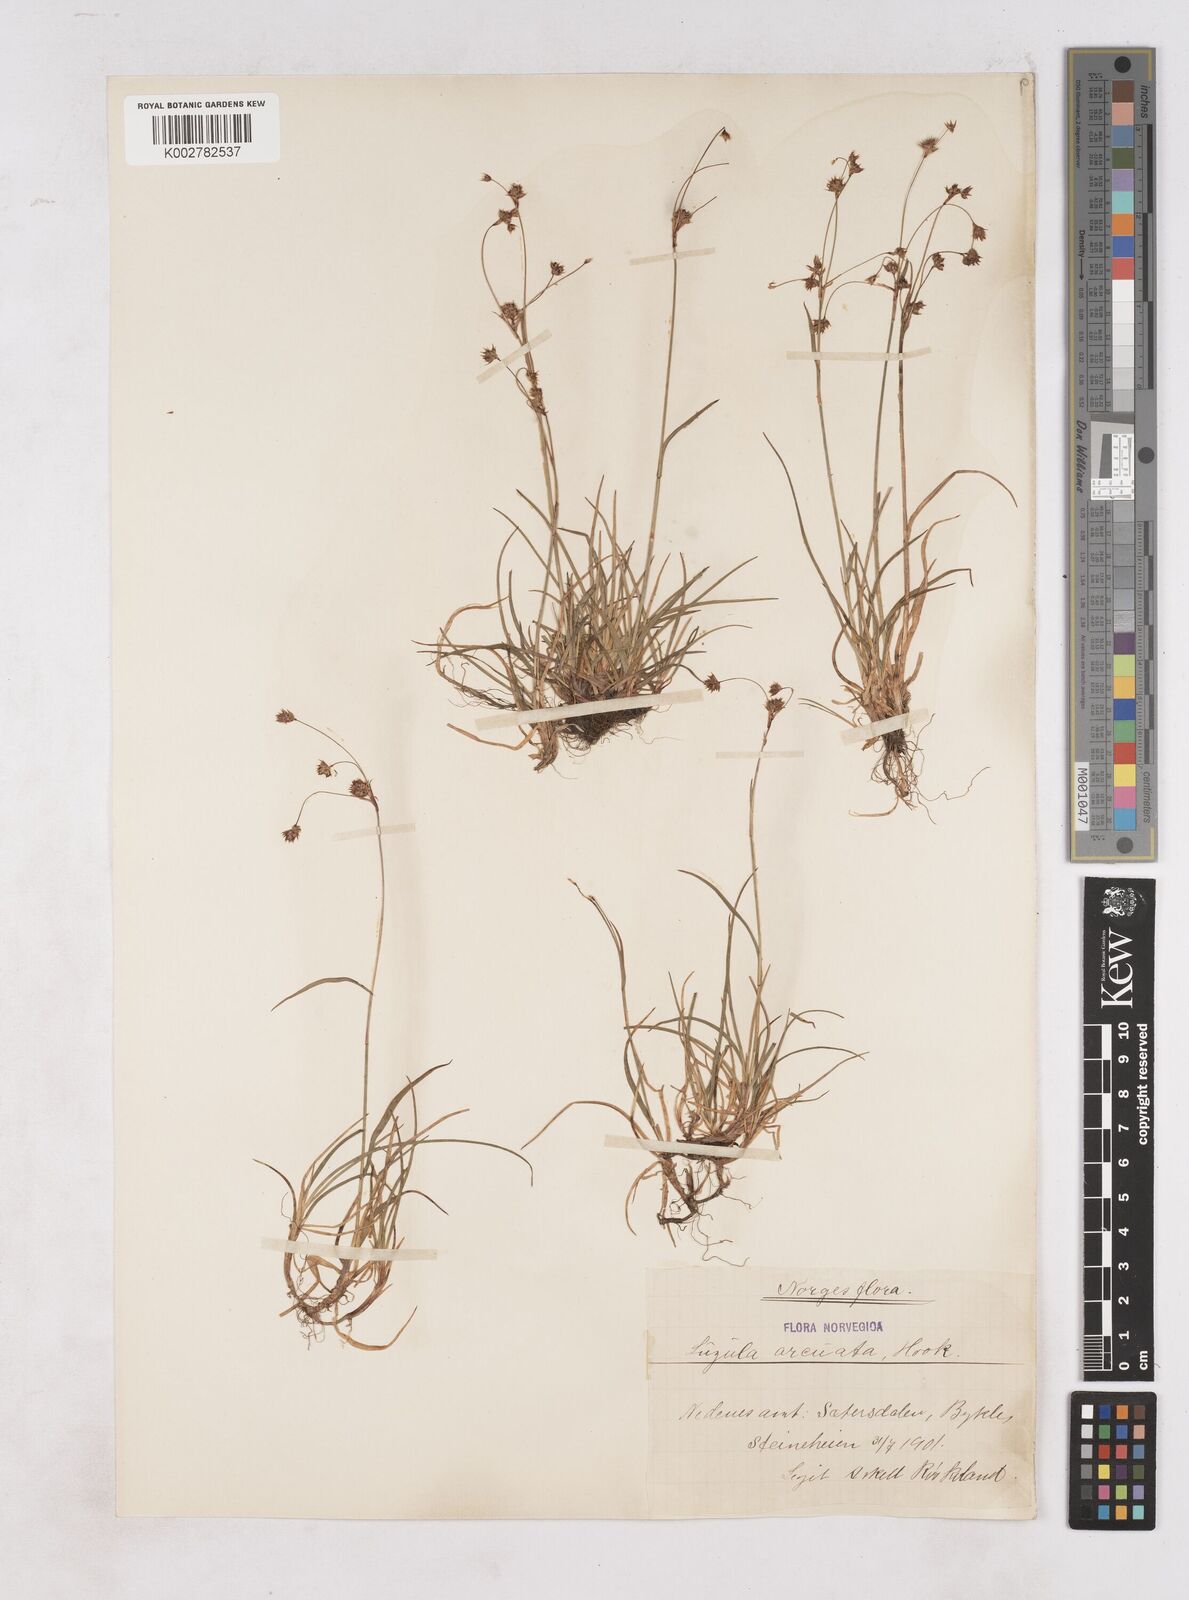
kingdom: Plantae
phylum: Tracheophyta
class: Liliopsida
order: Poales
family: Juncaceae
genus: Luzula
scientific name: Luzula arcuata
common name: Curved wood-rush
